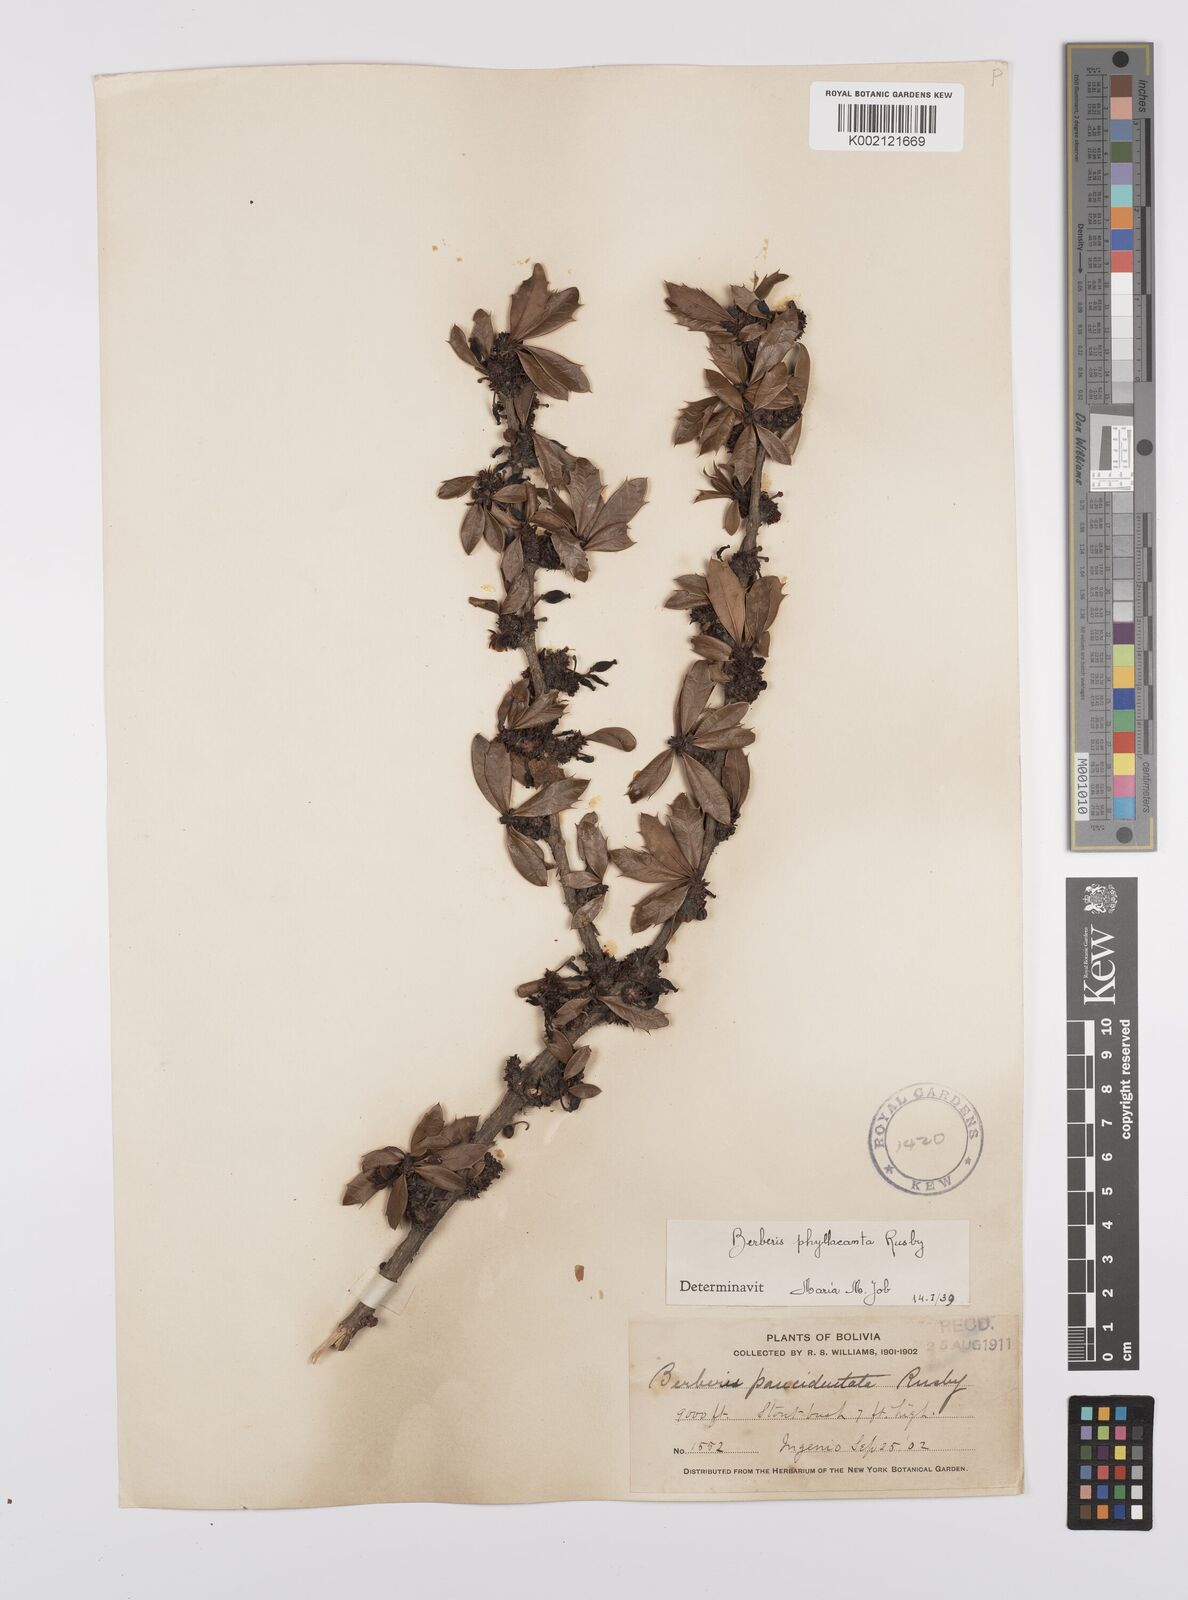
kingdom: Plantae
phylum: Tracheophyta
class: Magnoliopsida
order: Ranunculales
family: Berberidaceae
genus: Berberis
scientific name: Berberis phyllacantha
